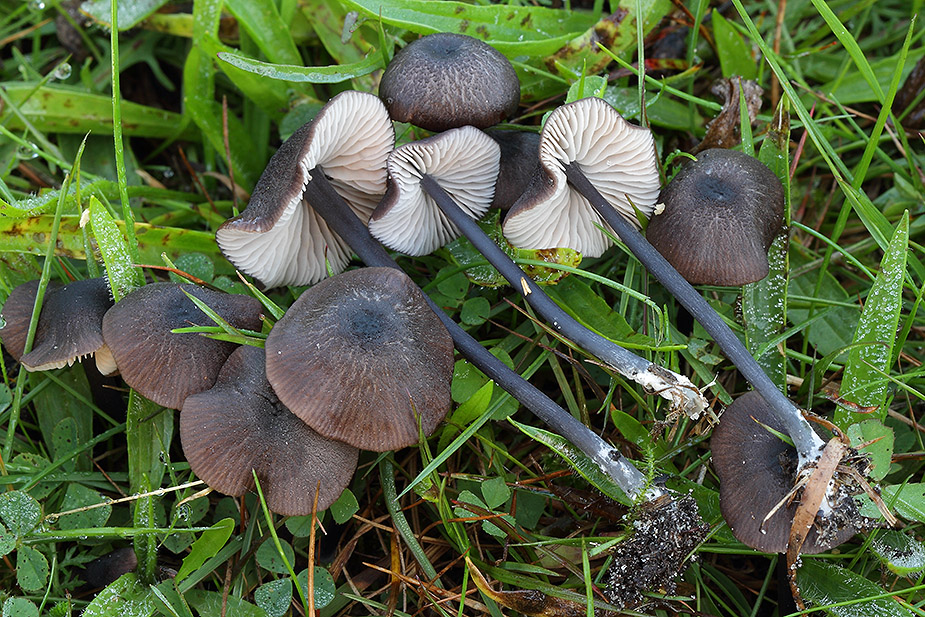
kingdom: Fungi
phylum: Basidiomycota
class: Agaricomycetes
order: Agaricales
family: Entolomataceae
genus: Entoloma
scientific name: Entoloma asprellum
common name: ru rødblad
